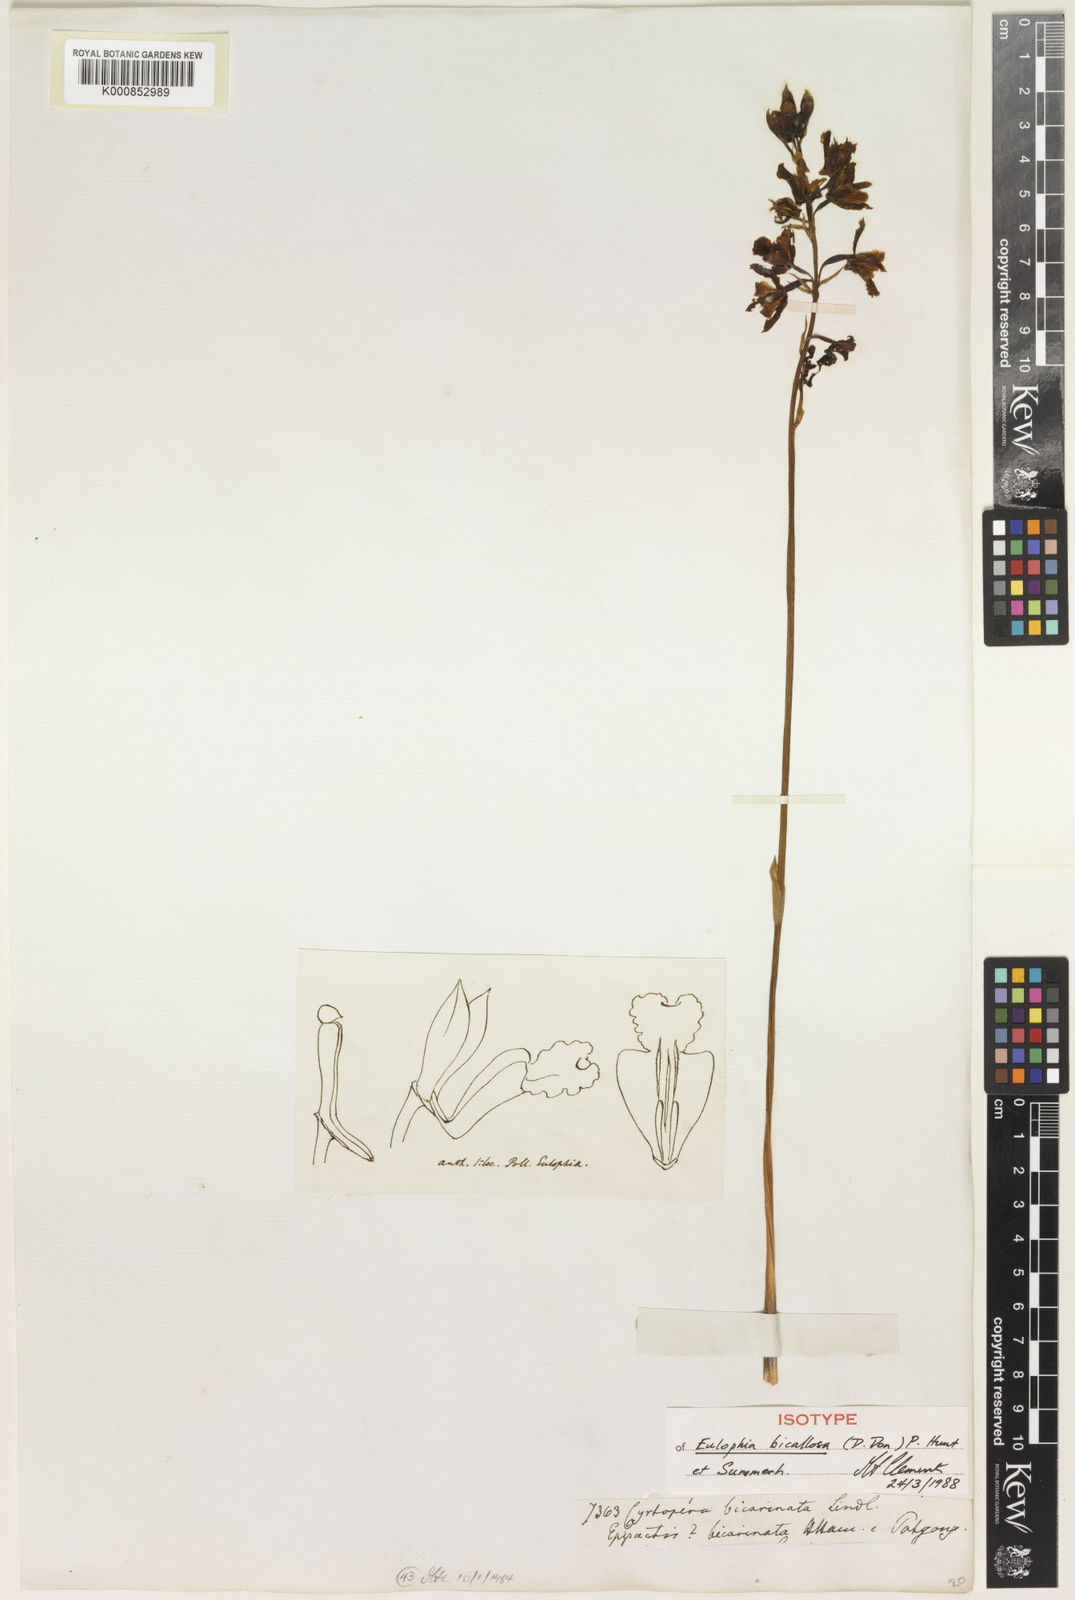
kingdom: Plantae
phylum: Tracheophyta
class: Liliopsida
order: Asparagales
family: Orchidaceae
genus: Eulophia
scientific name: Eulophia bicallosa
